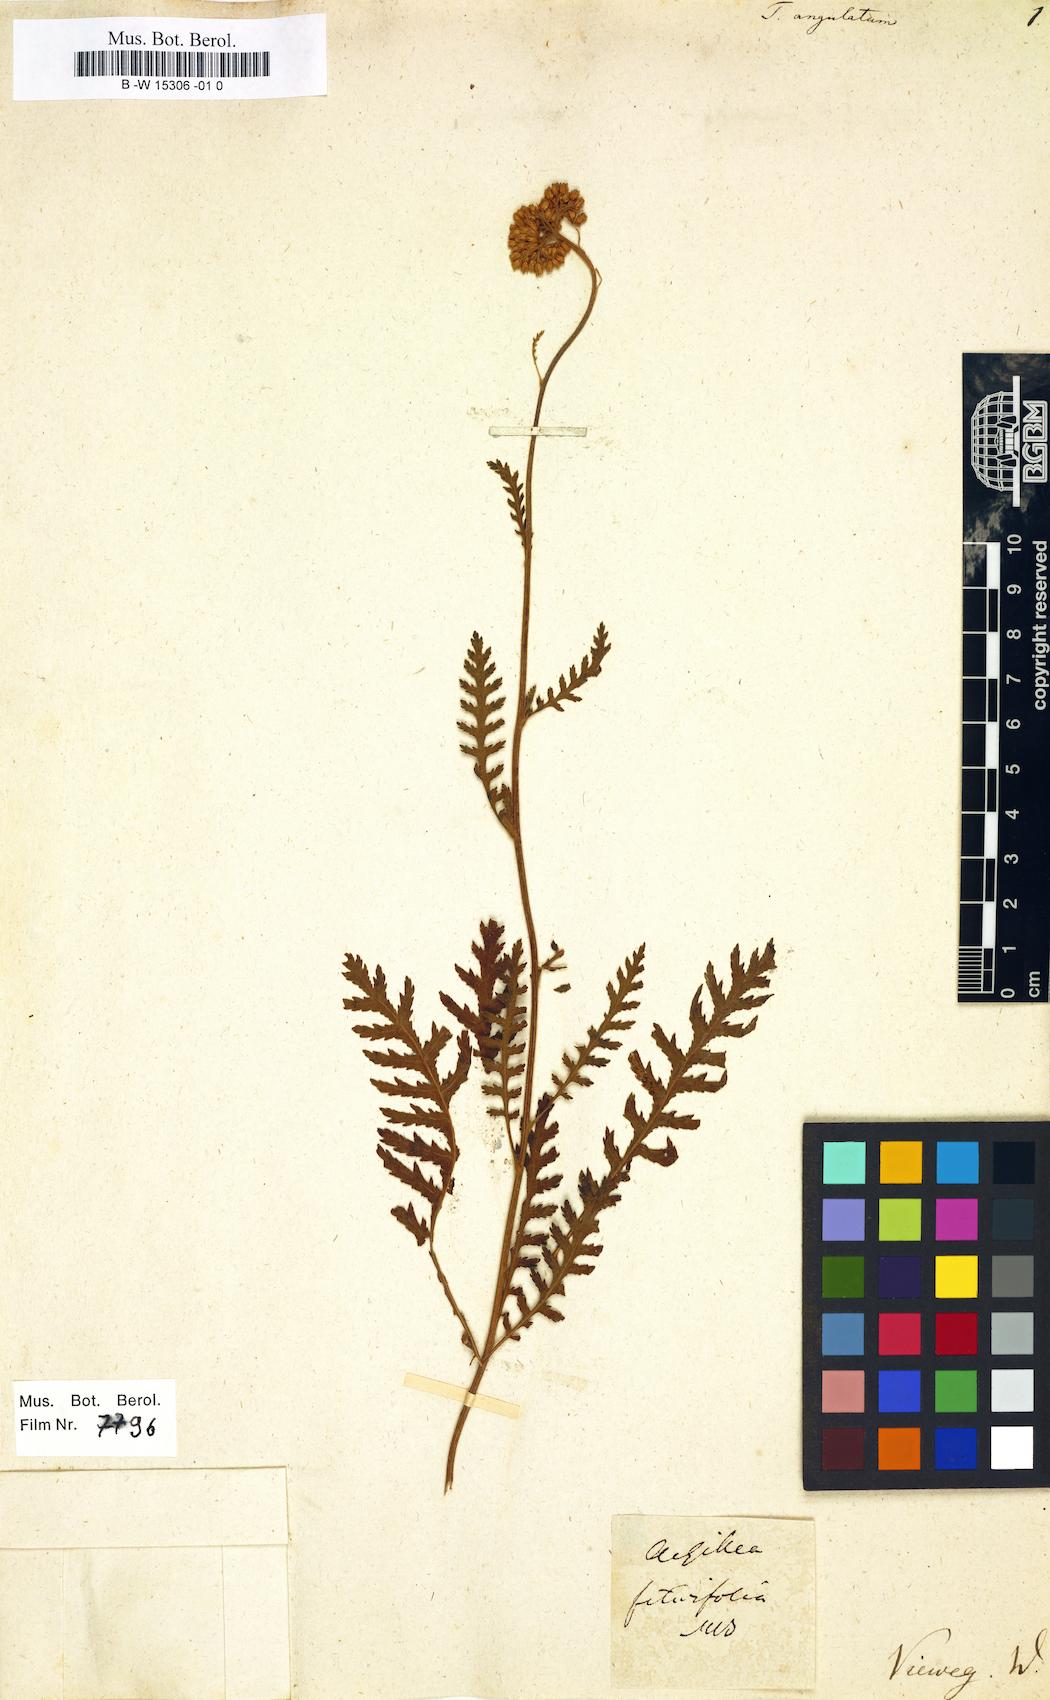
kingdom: Plantae
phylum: Tracheophyta
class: Magnoliopsida
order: Asterales
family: Asteraceae
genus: Achillea
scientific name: Achillea filipendulina
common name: Fernleaf yarrow
